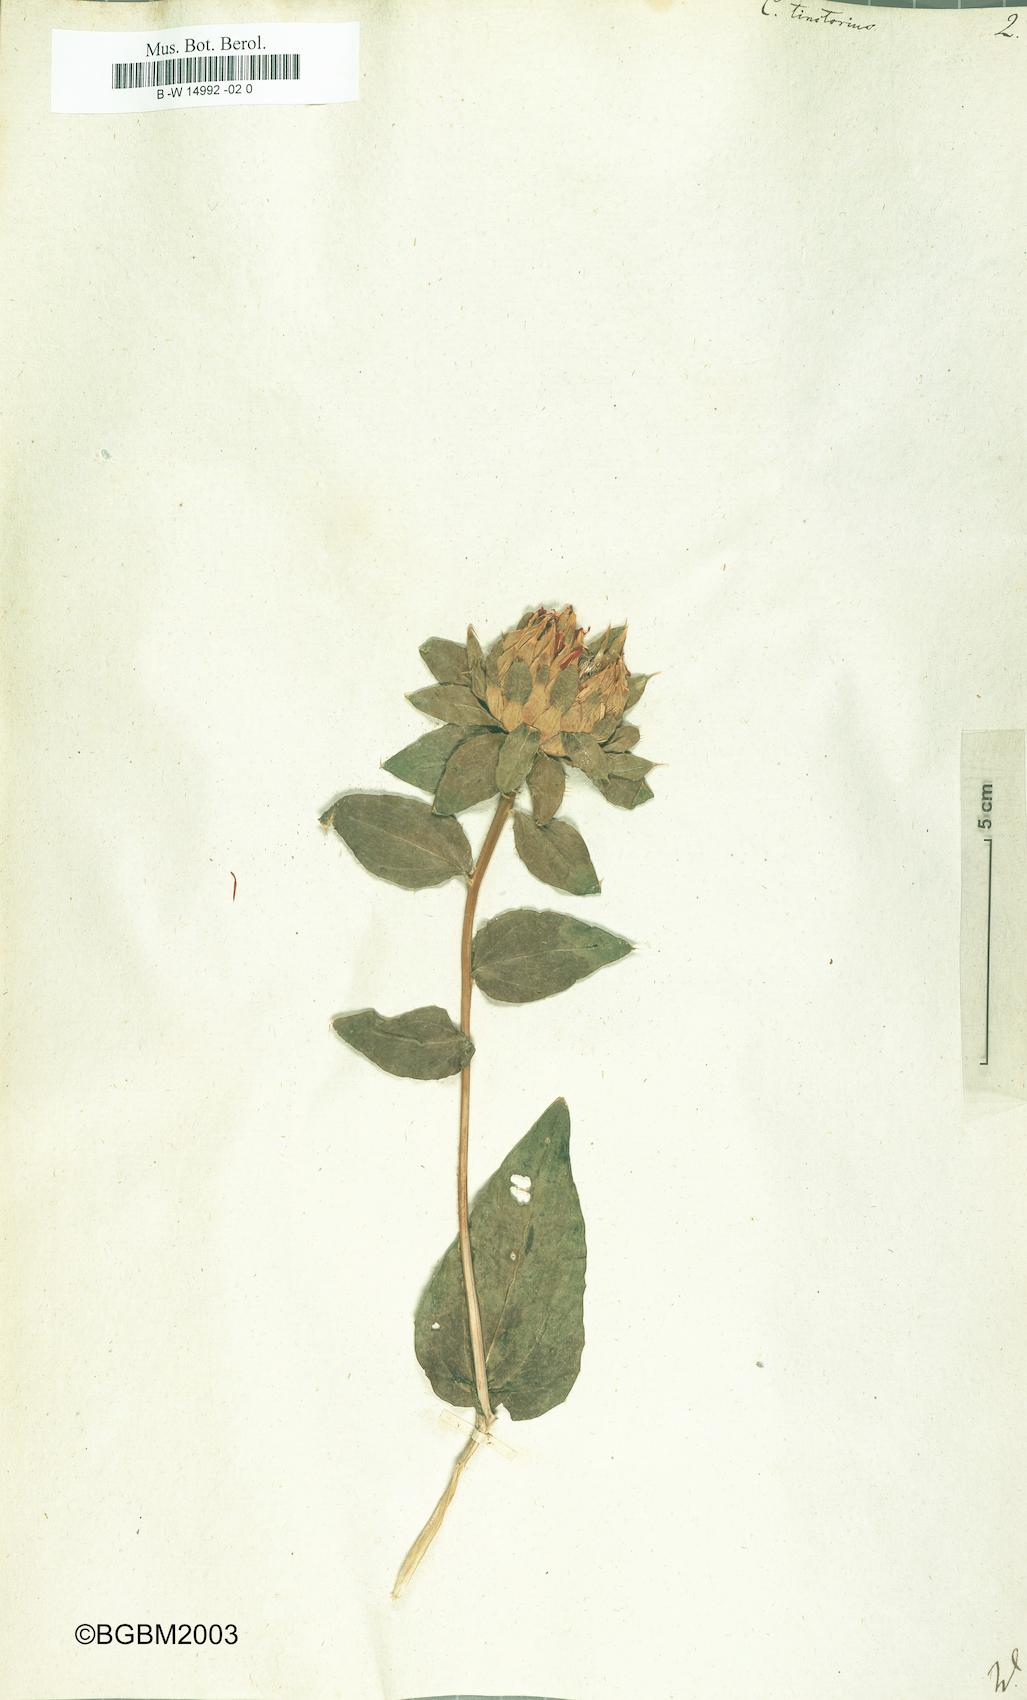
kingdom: Plantae
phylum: Tracheophyta
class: Magnoliopsida
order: Asterales
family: Asteraceae
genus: Carthamus
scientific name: Carthamus tinctorius
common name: Safflower
